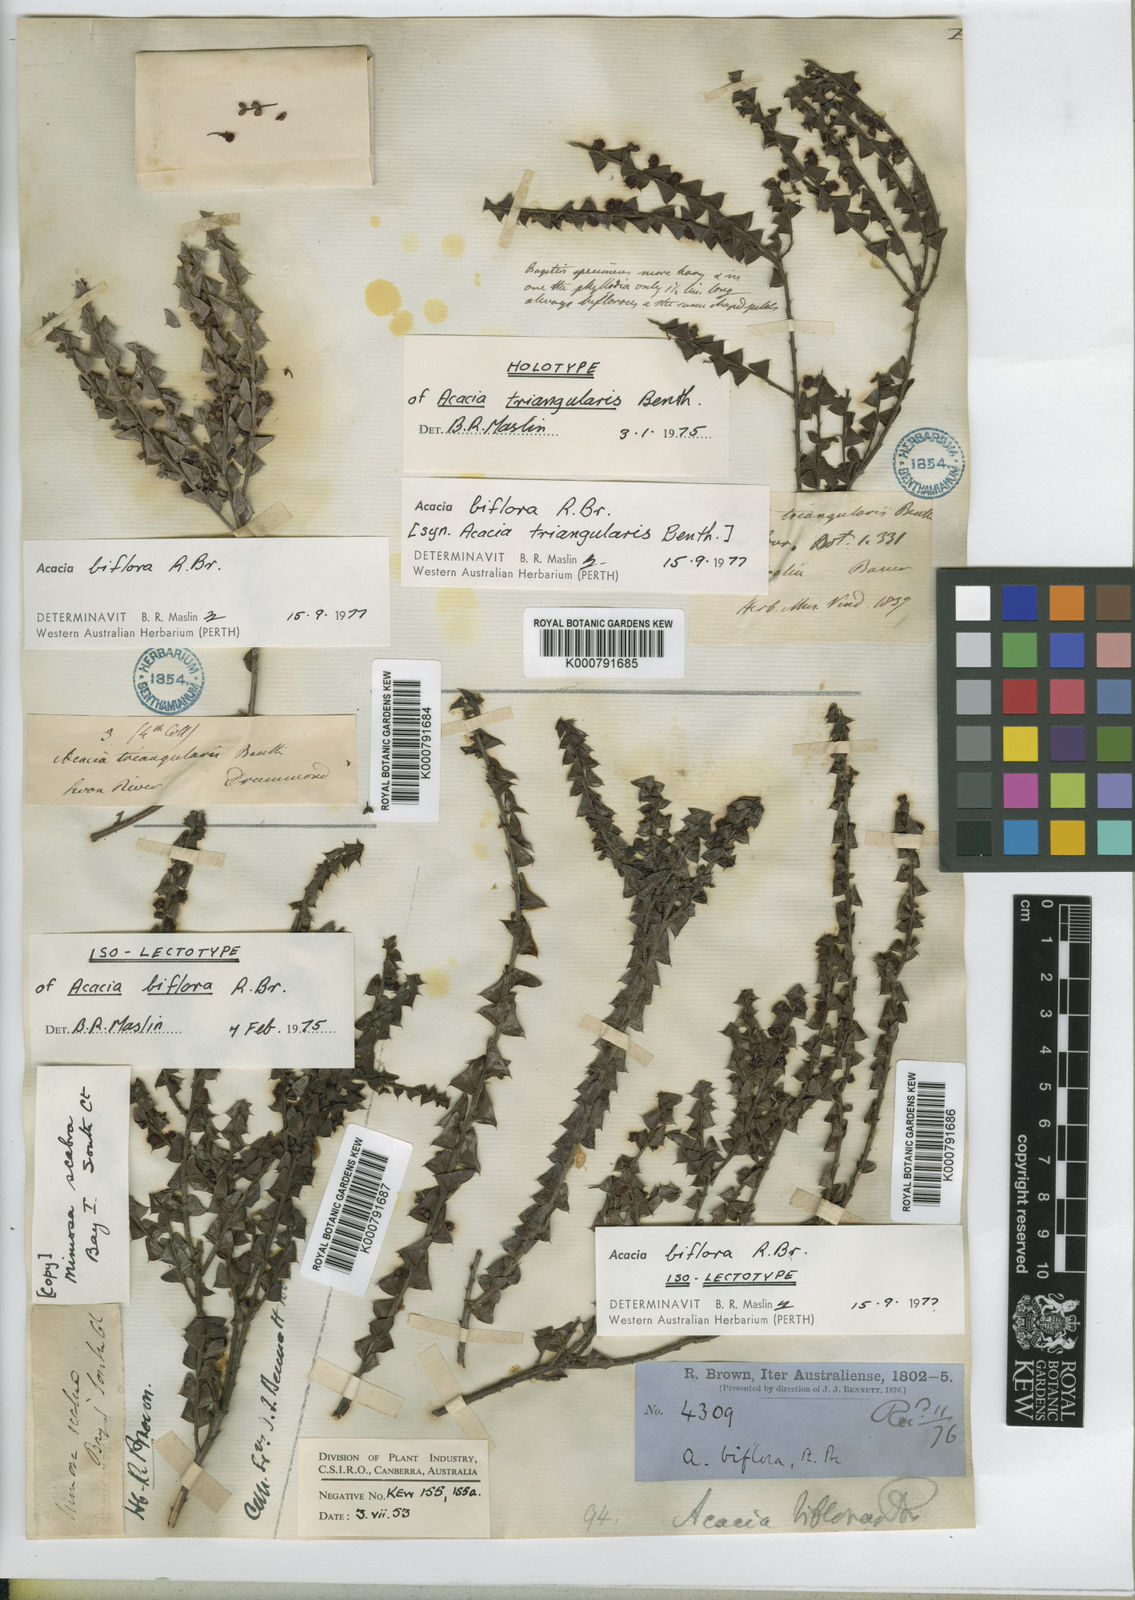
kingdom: Plantae
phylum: Tracheophyta
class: Magnoliopsida
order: Fabales
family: Fabaceae
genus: Acacia
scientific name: Acacia biflora
